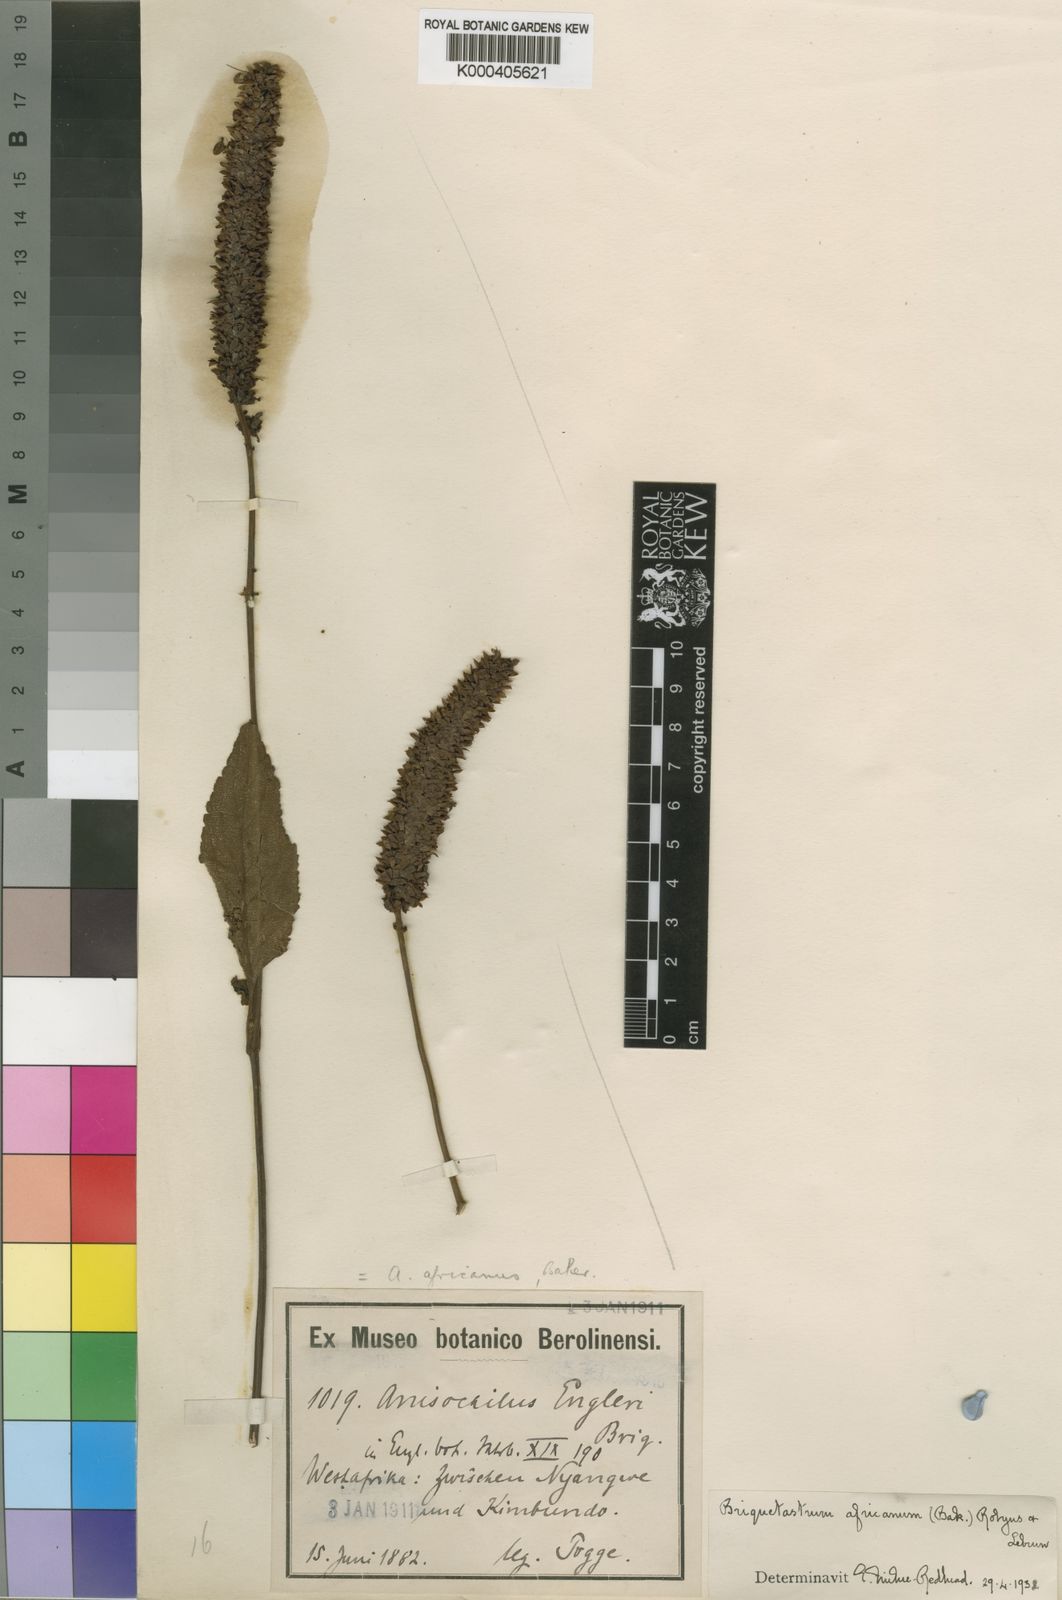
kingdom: Plantae
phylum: Tracheophyta
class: Magnoliopsida
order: Lamiales
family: Lamiaceae
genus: Coleus
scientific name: Coleus engleri
